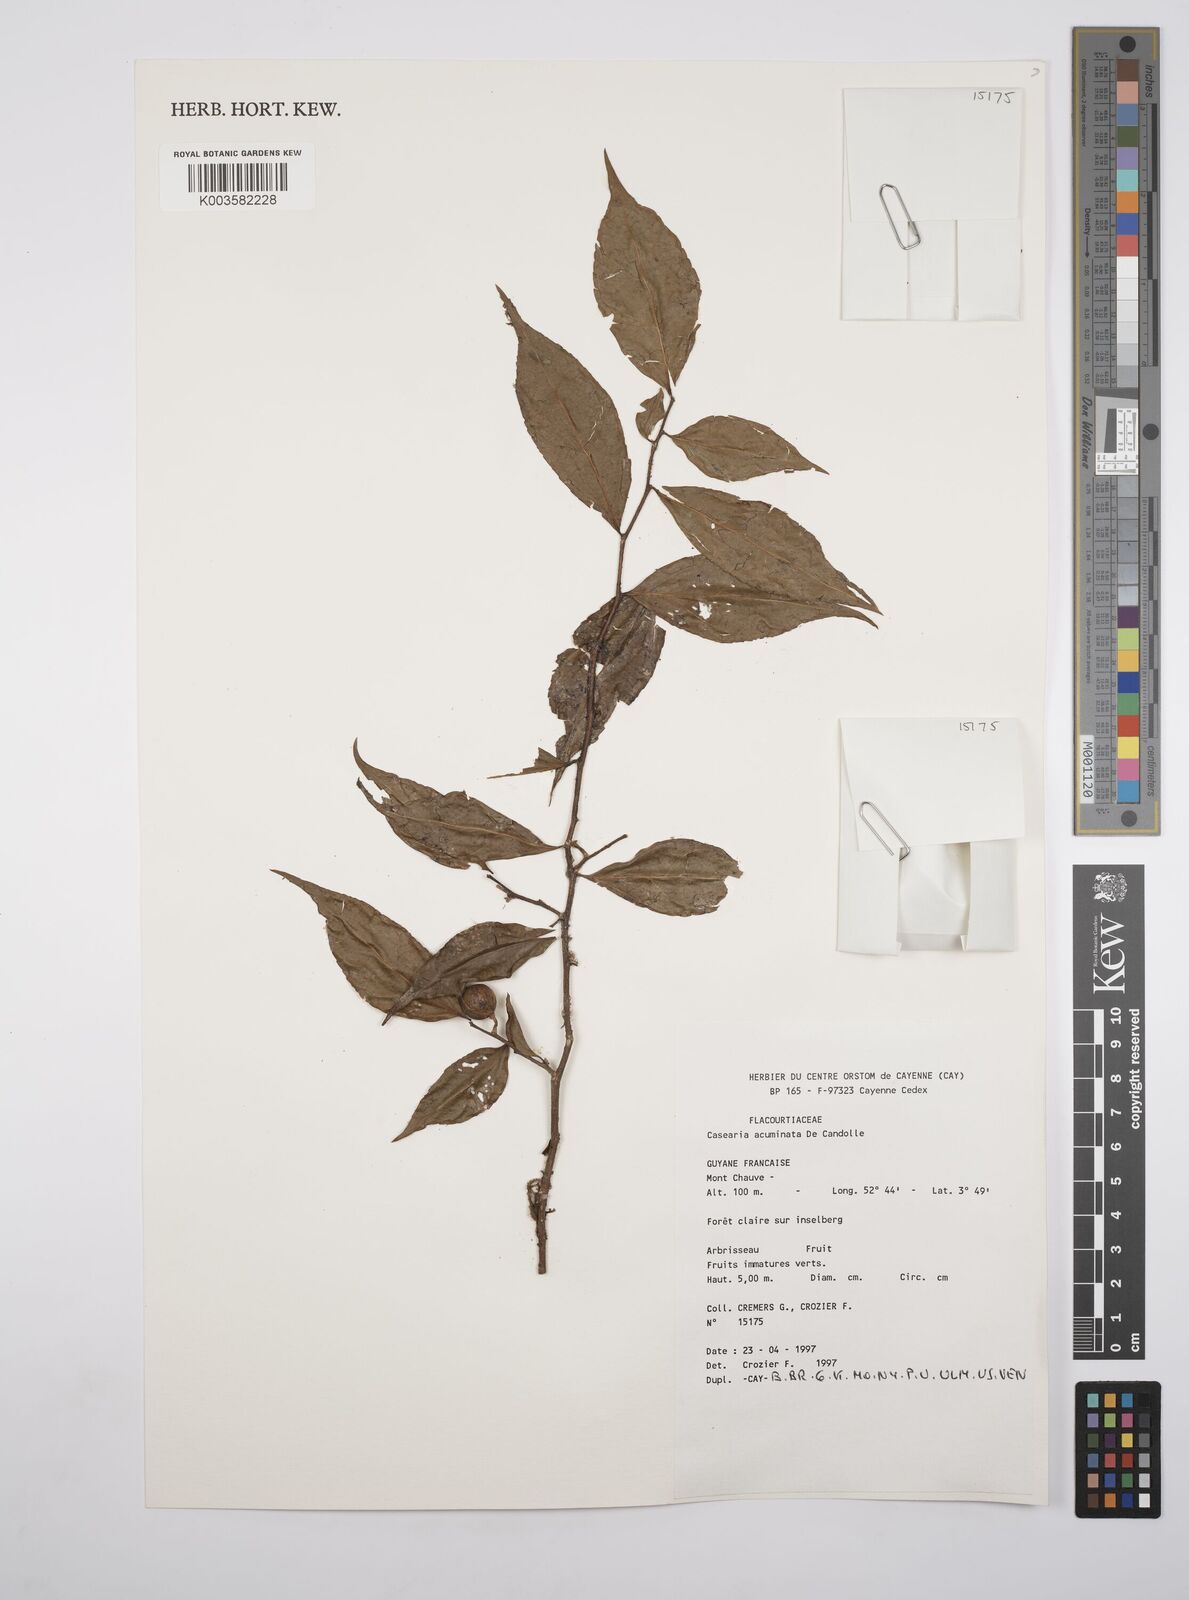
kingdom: Plantae
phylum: Tracheophyta
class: Magnoliopsida
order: Malpighiales
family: Salicaceae
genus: Casearia
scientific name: Casearia acuminata
